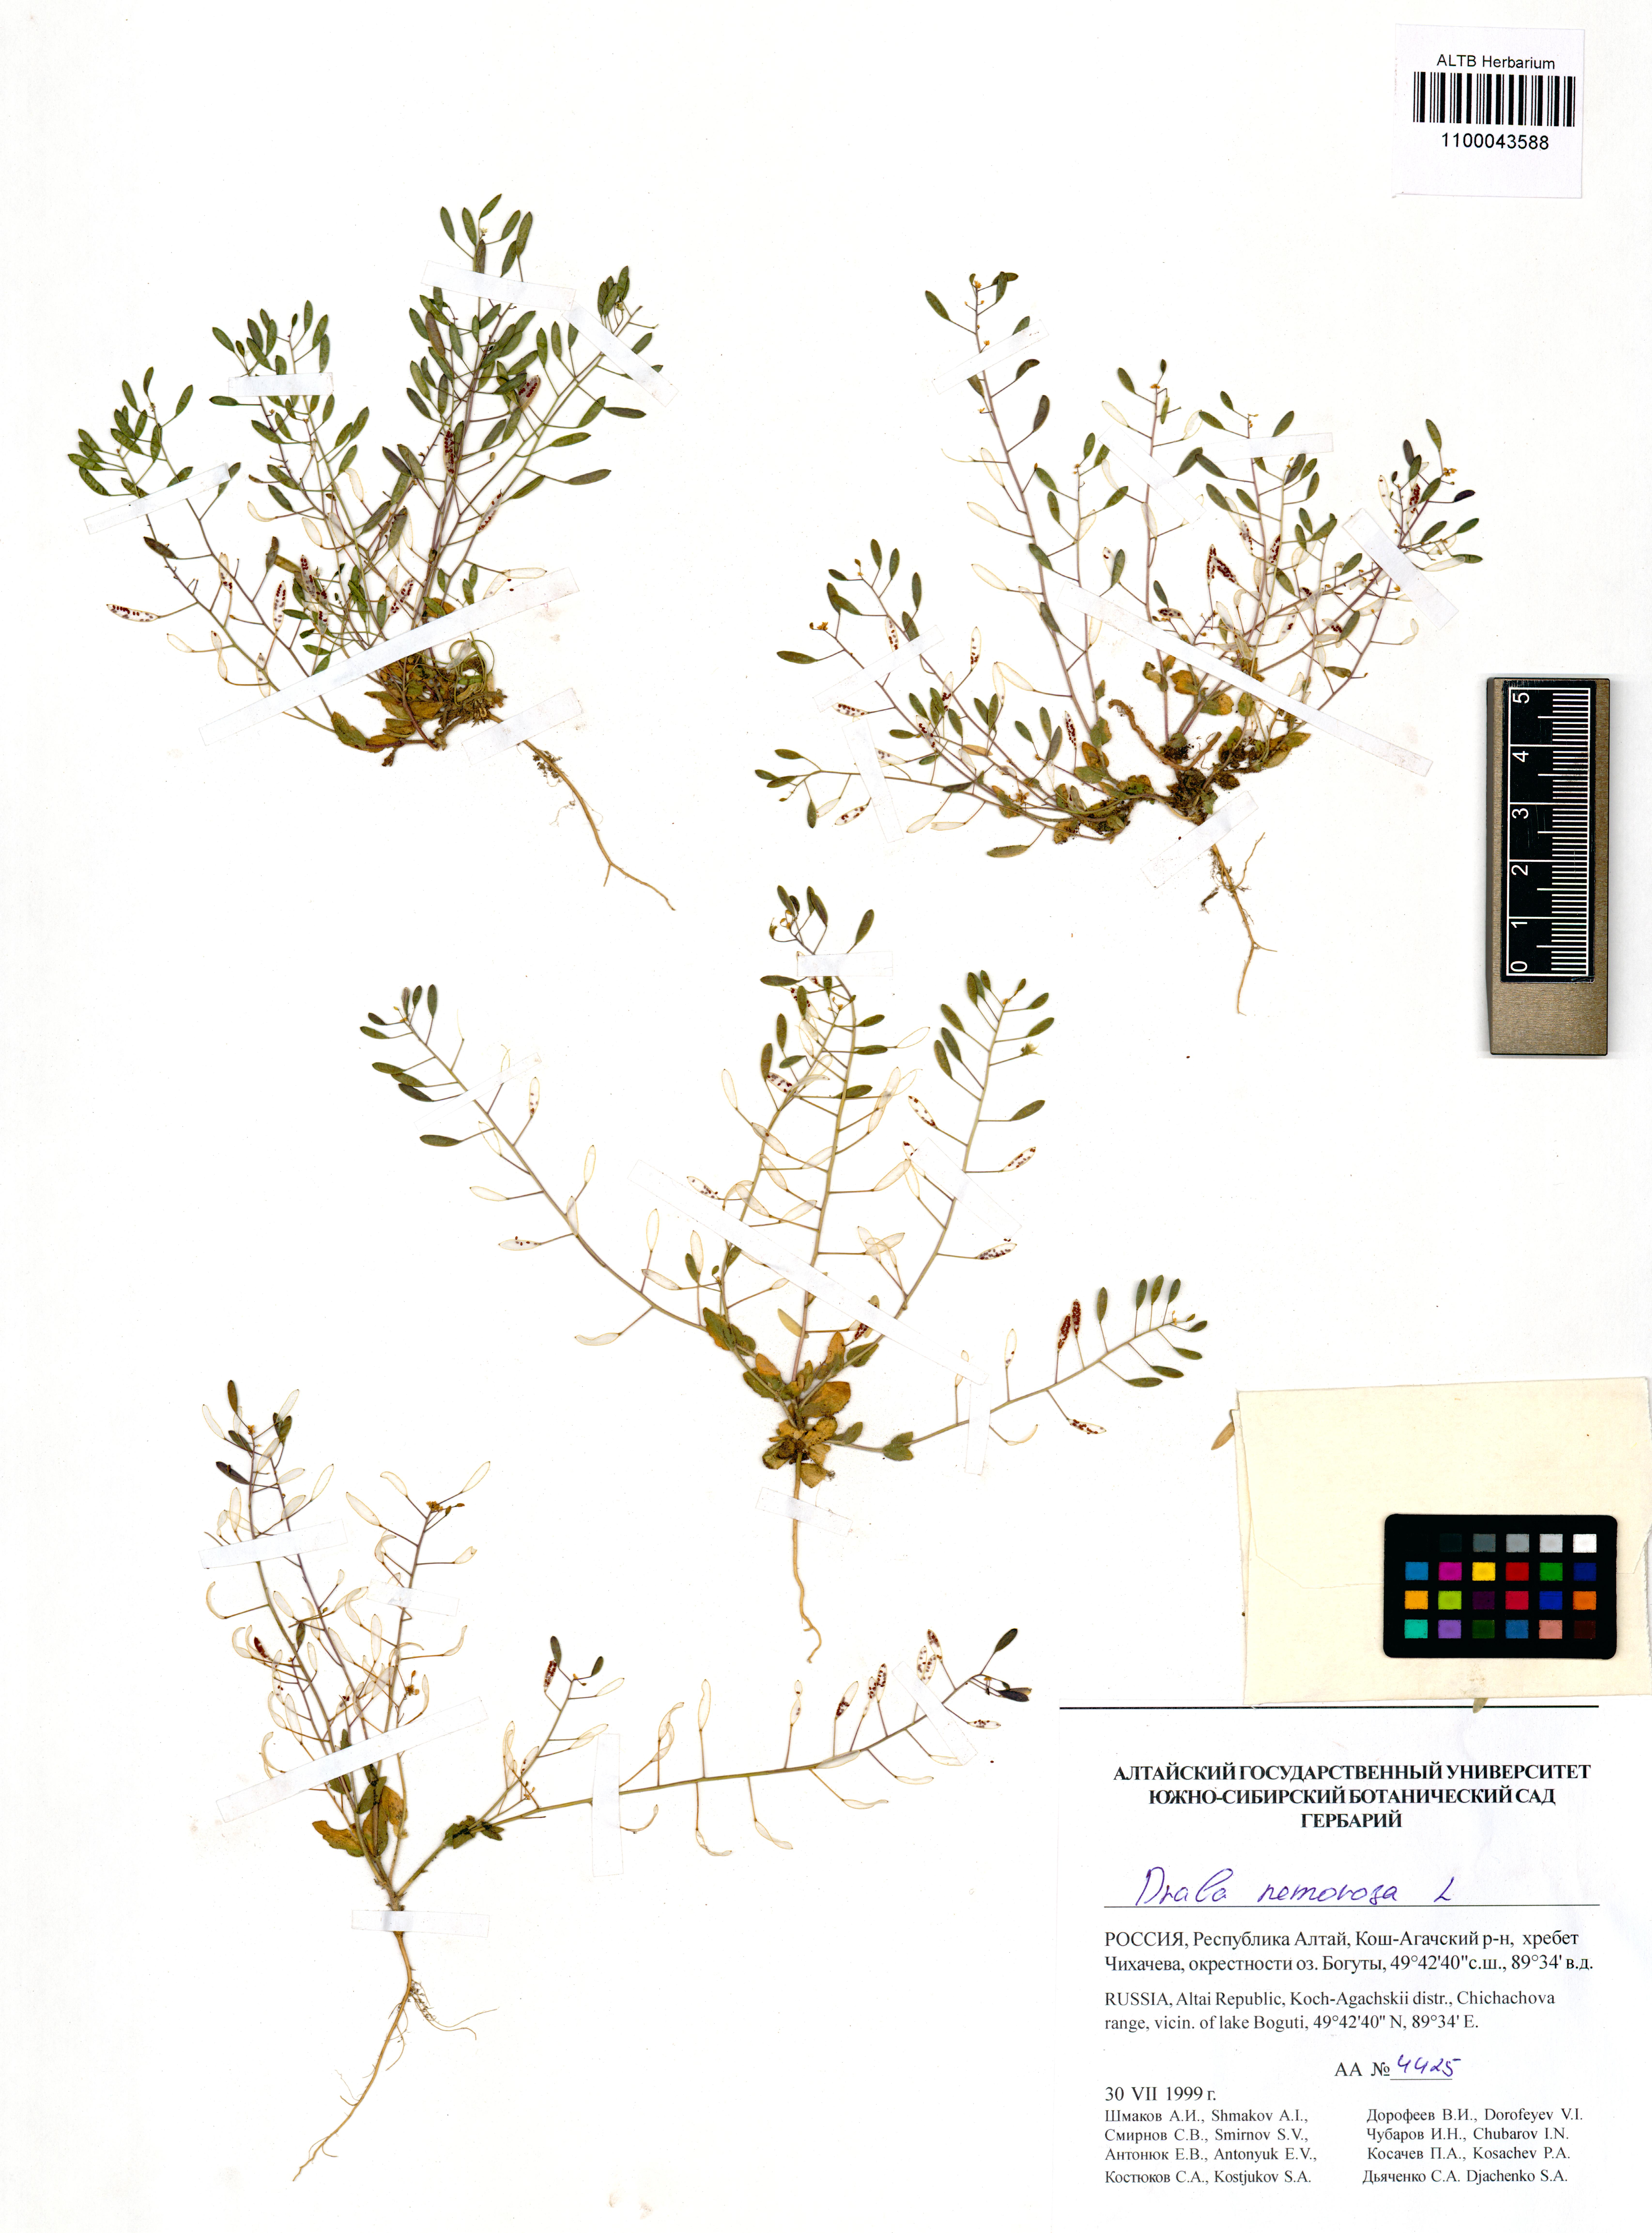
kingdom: Plantae
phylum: Tracheophyta
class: Magnoliopsida
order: Brassicales
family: Brassicaceae
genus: Draba
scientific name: Draba nemorosa
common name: Wood whitlow-grass
